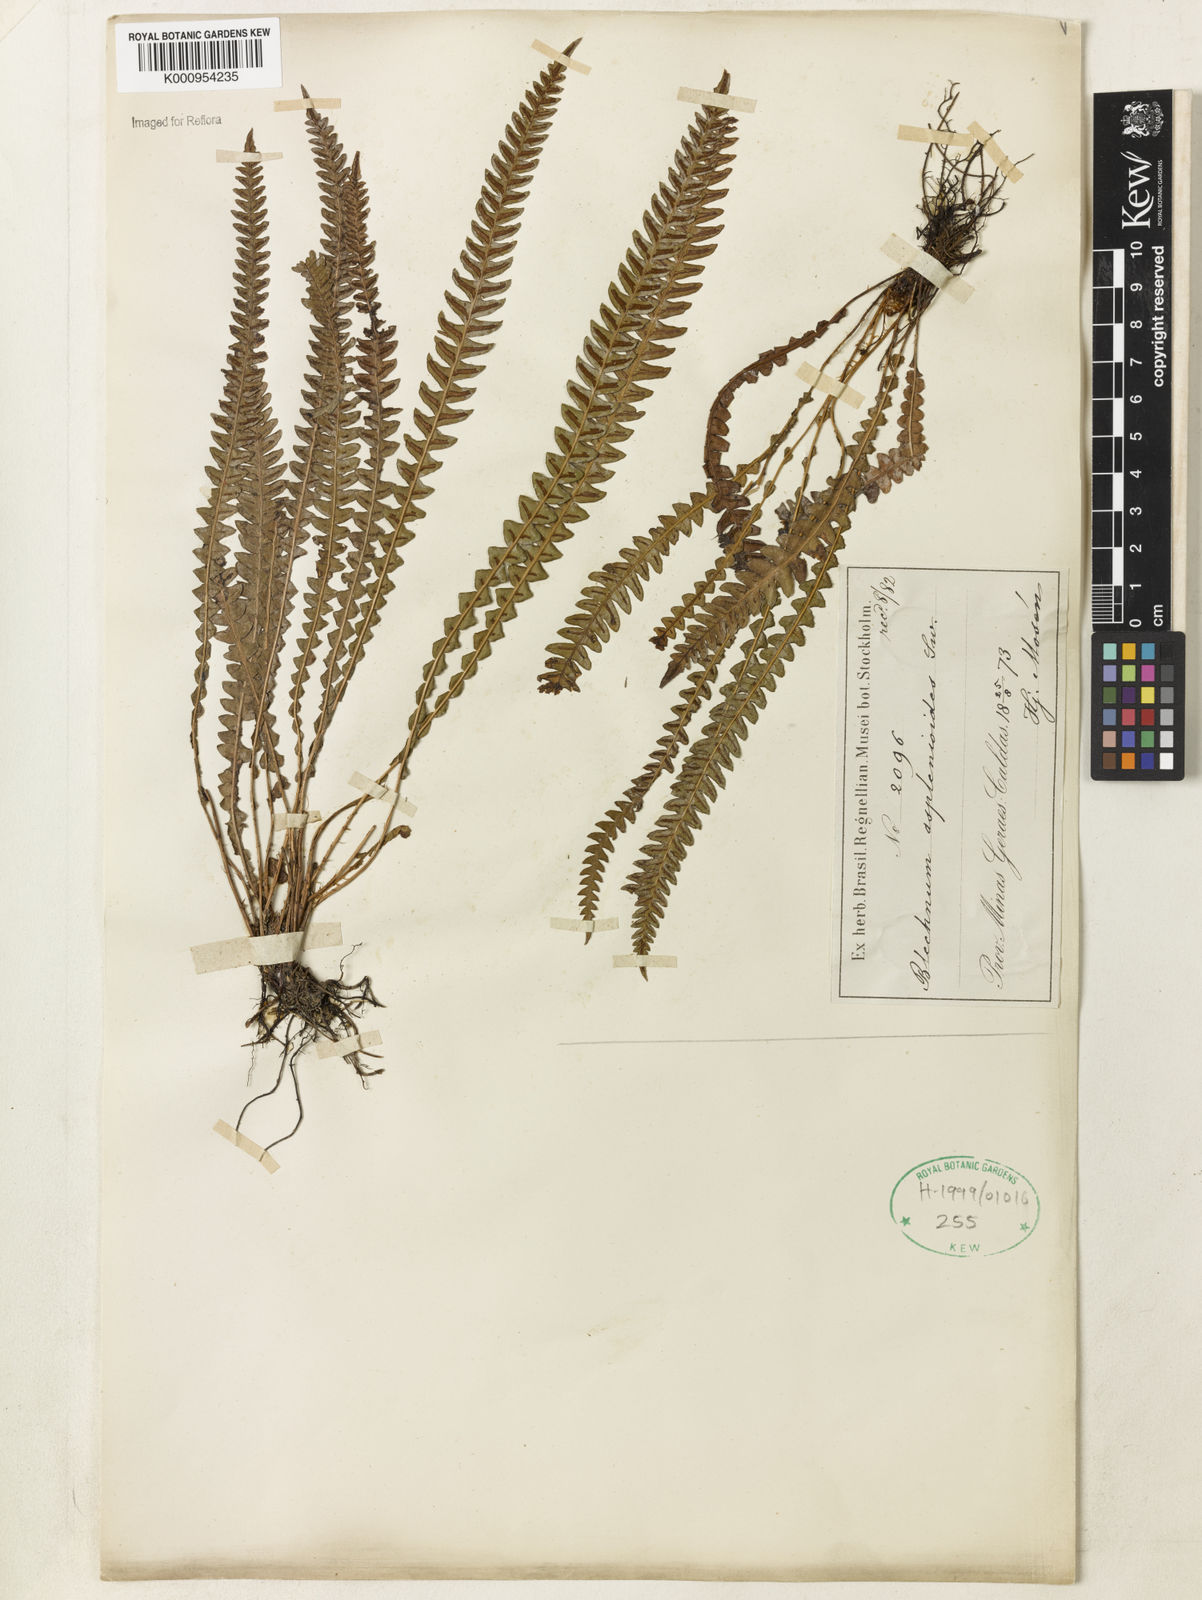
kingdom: Plantae
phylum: Tracheophyta
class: Polypodiopsida
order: Polypodiales
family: Blechnaceae
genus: Blechnum
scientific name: Blechnum asplenioides
